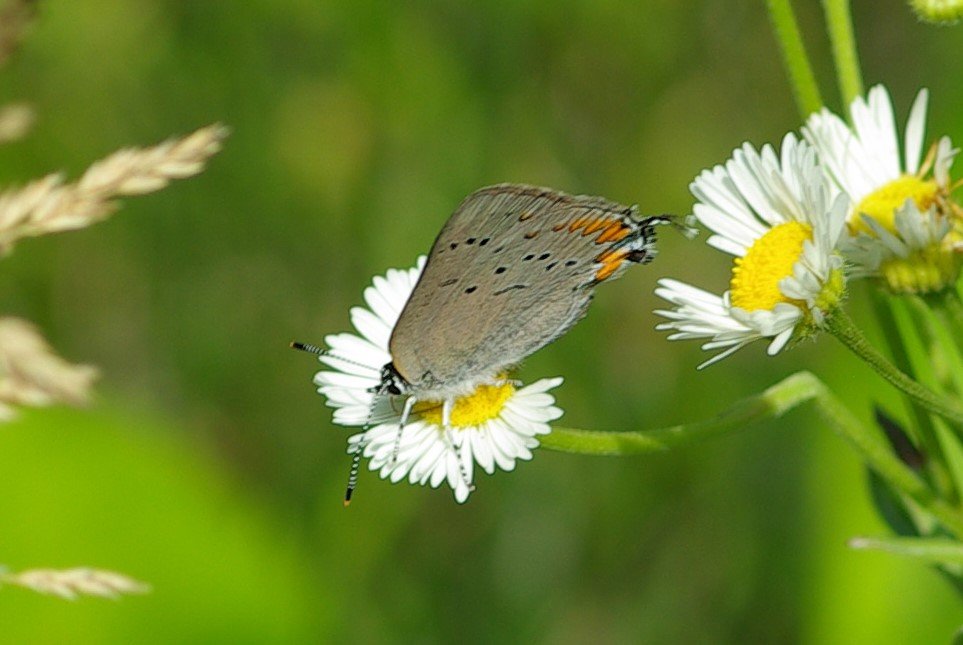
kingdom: Animalia
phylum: Arthropoda
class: Insecta
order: Lepidoptera
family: Lycaenidae
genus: Strymon
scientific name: Strymon acadica
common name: Acadian Hairstreak
